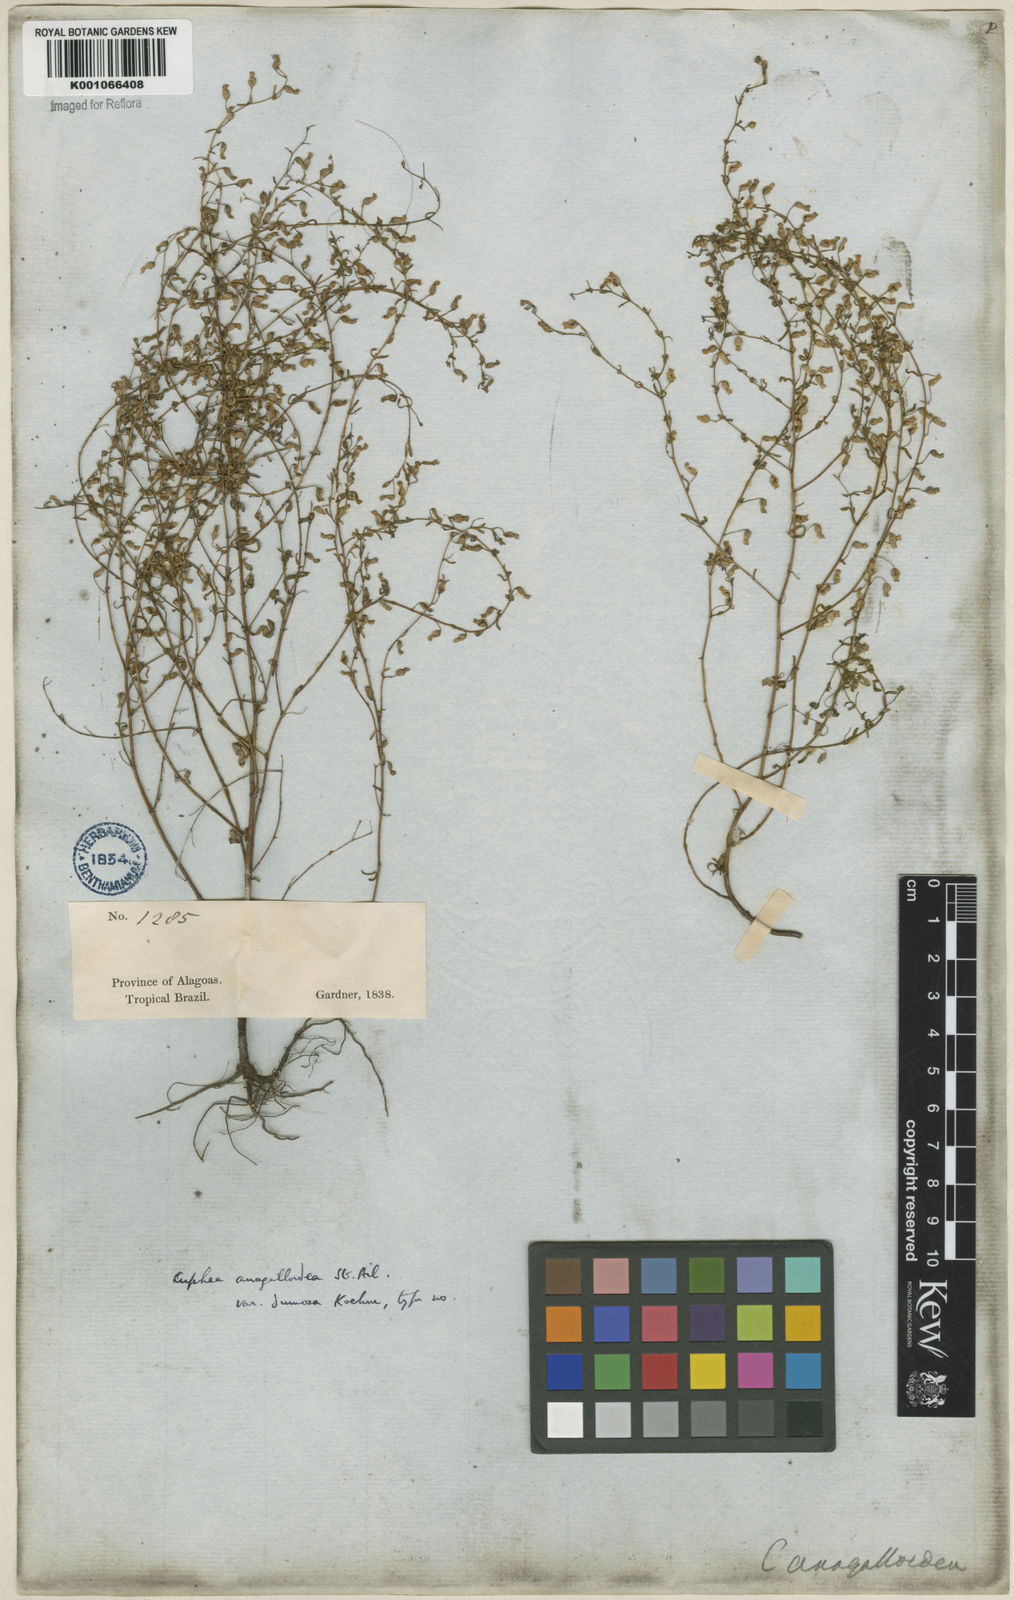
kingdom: Plantae
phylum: Tracheophyta
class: Magnoliopsida
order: Myrtales
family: Lythraceae
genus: Cuphea
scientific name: Cuphea anagalloidea
